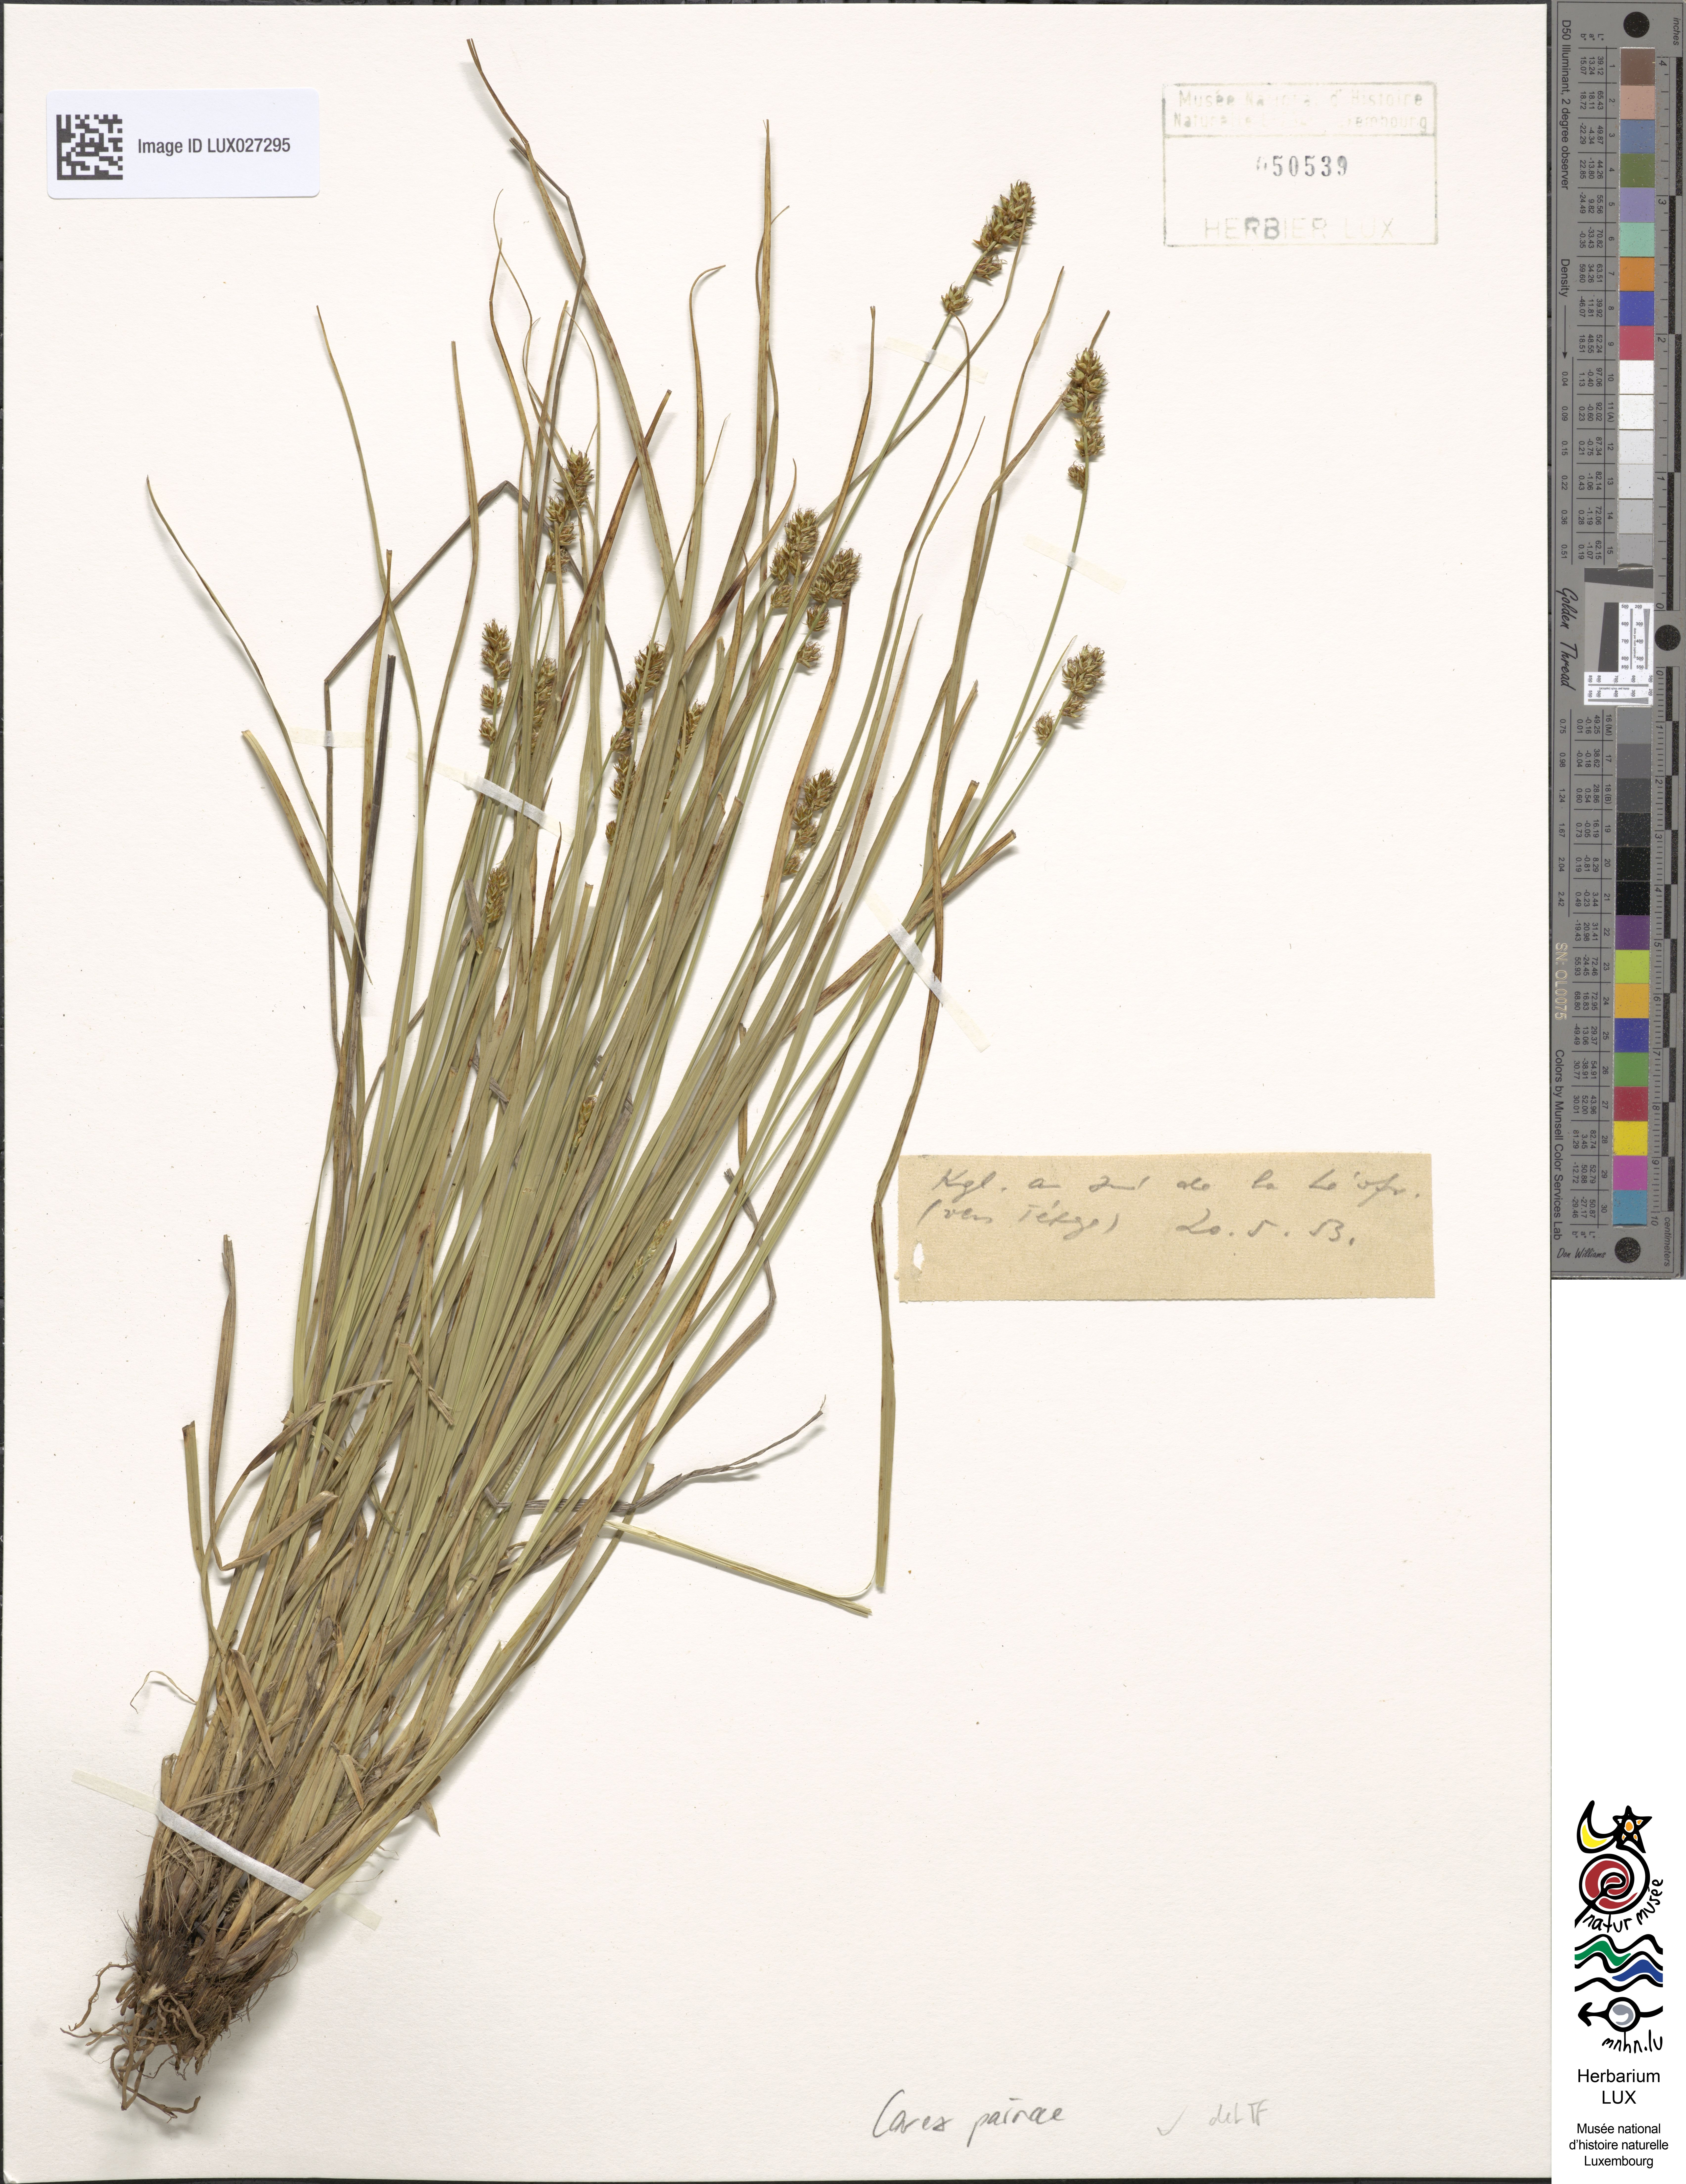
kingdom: Plantae
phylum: Tracheophyta
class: Liliopsida
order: Poales
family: Cyperaceae
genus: Carex
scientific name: Carex pairae
